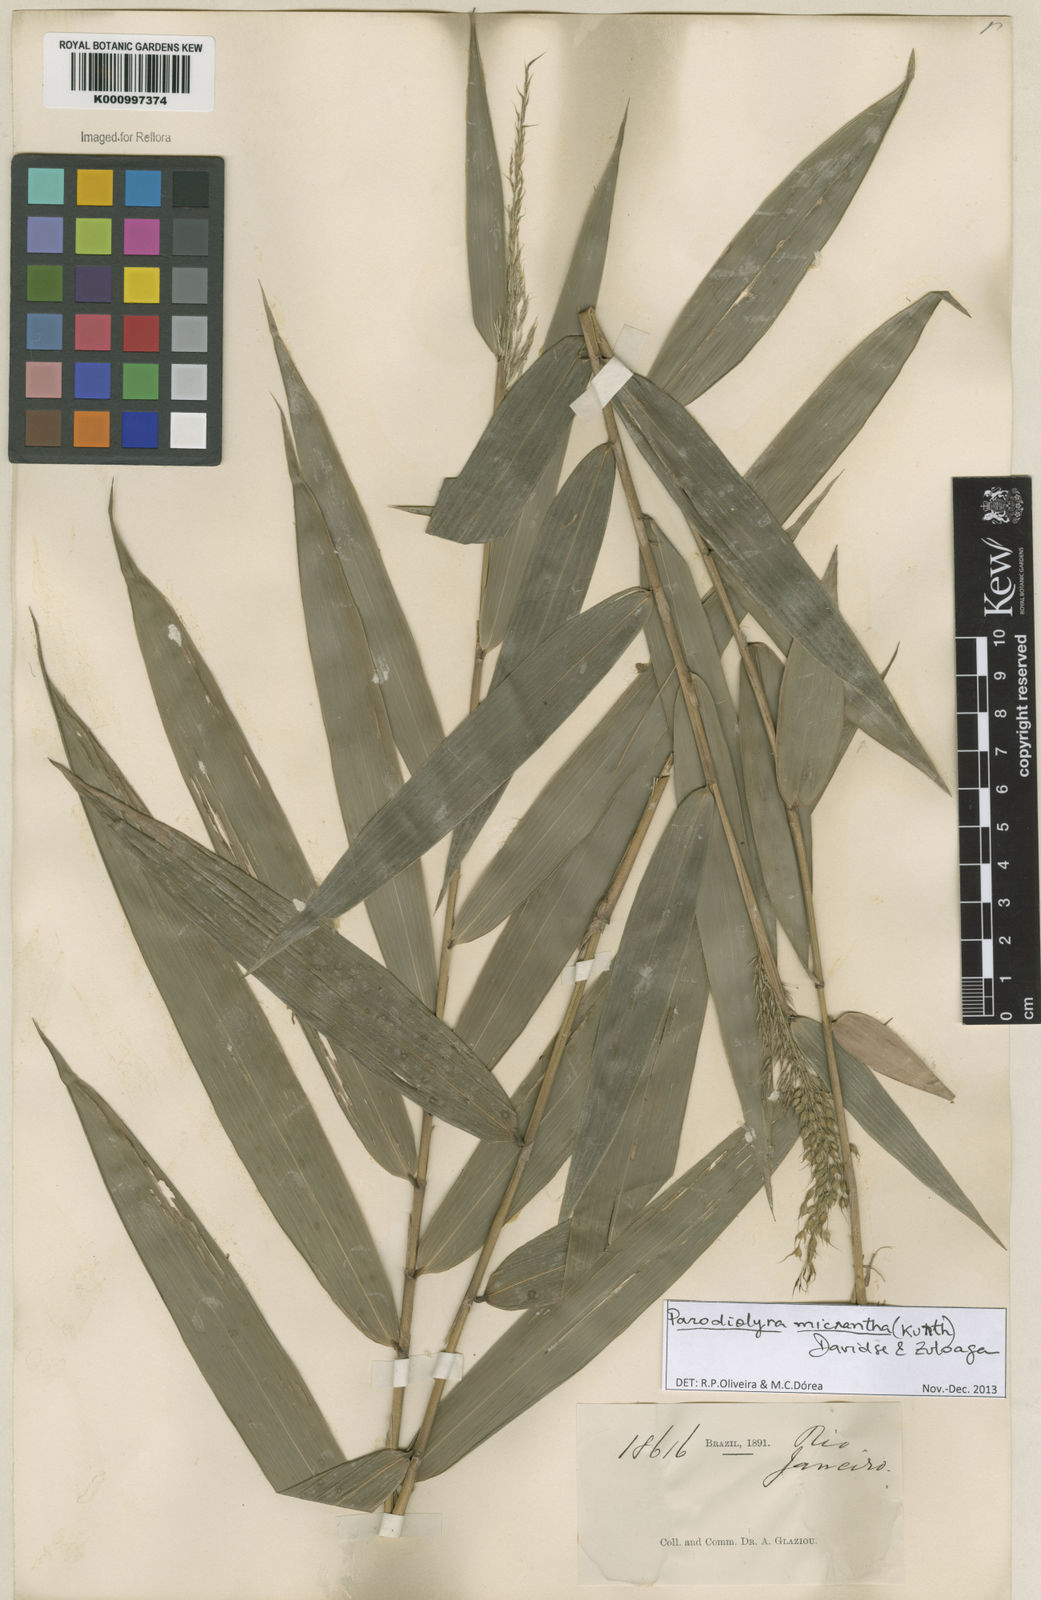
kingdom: Plantae
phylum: Tracheophyta
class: Liliopsida
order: Poales
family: Poaceae
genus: Taquara
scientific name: Taquara micrantha
